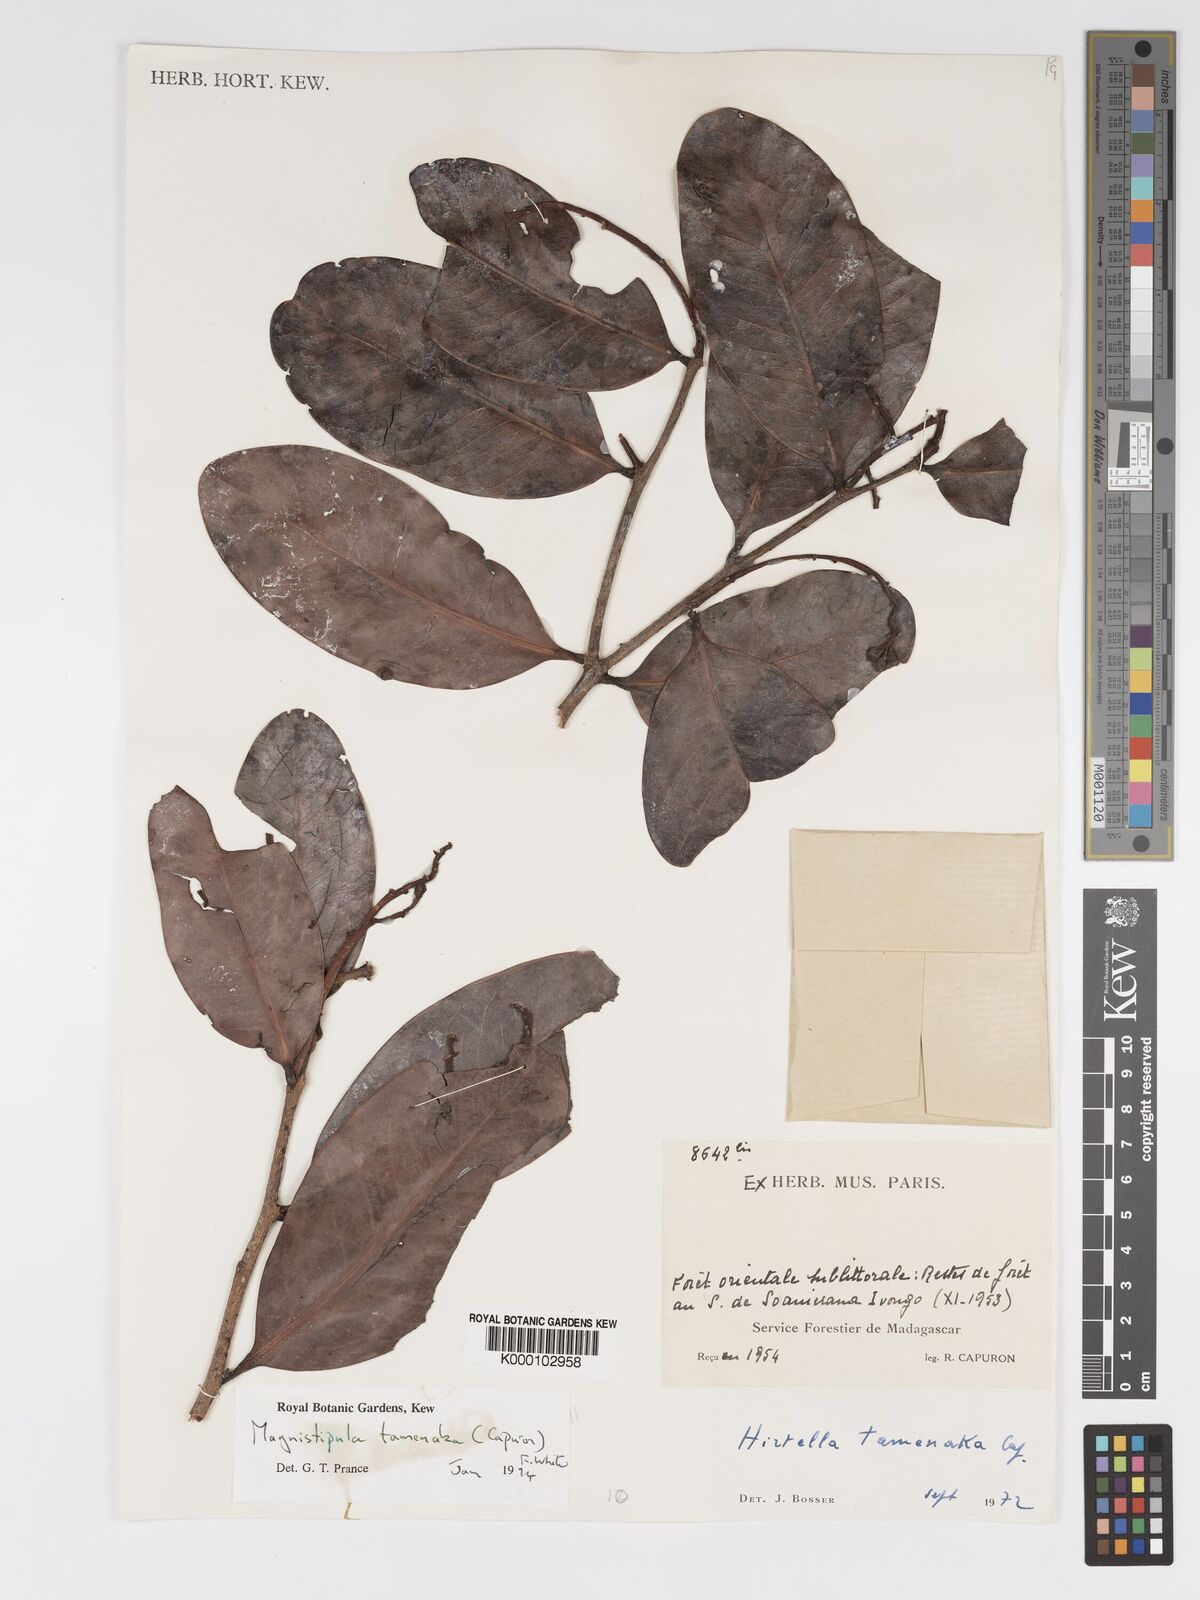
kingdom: Plantae
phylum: Tracheophyta
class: Magnoliopsida
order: Malpighiales
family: Chrysobalanaceae
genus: Magnistipula
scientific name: Magnistipula tamenaka
